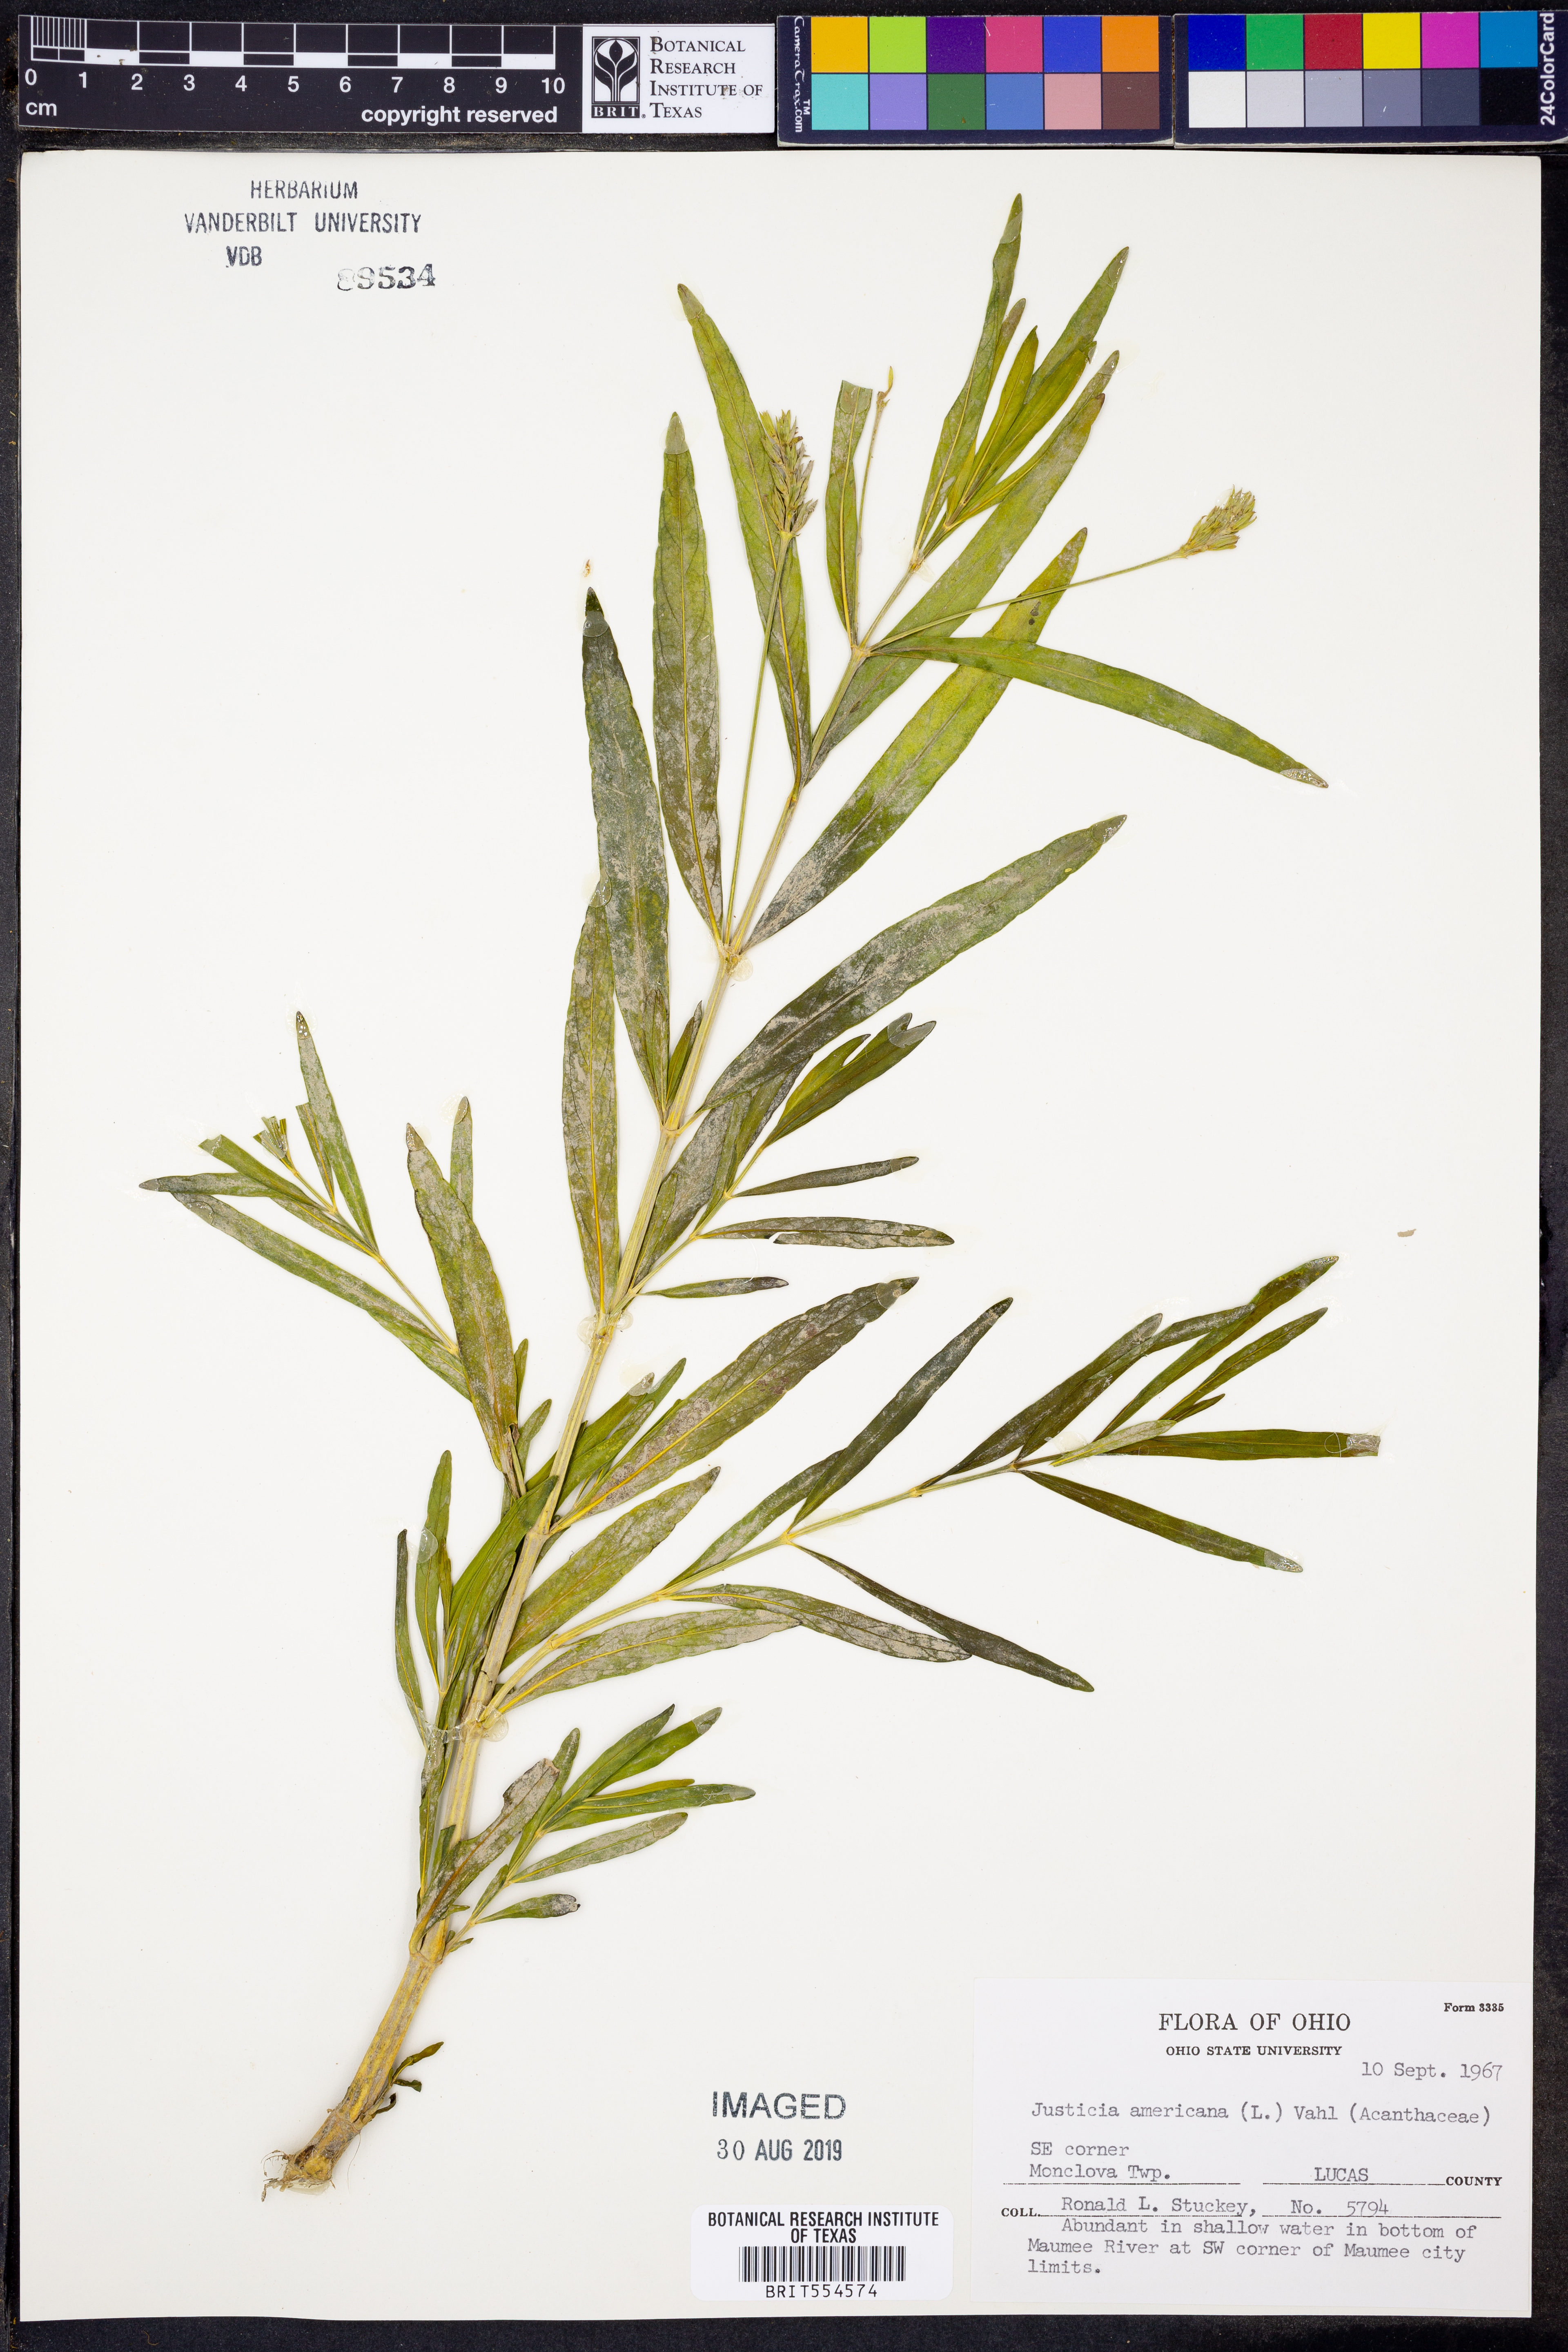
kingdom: Plantae
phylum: Tracheophyta
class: Magnoliopsida
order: Lamiales
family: Acanthaceae
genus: Dianthera
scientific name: Dianthera americana
